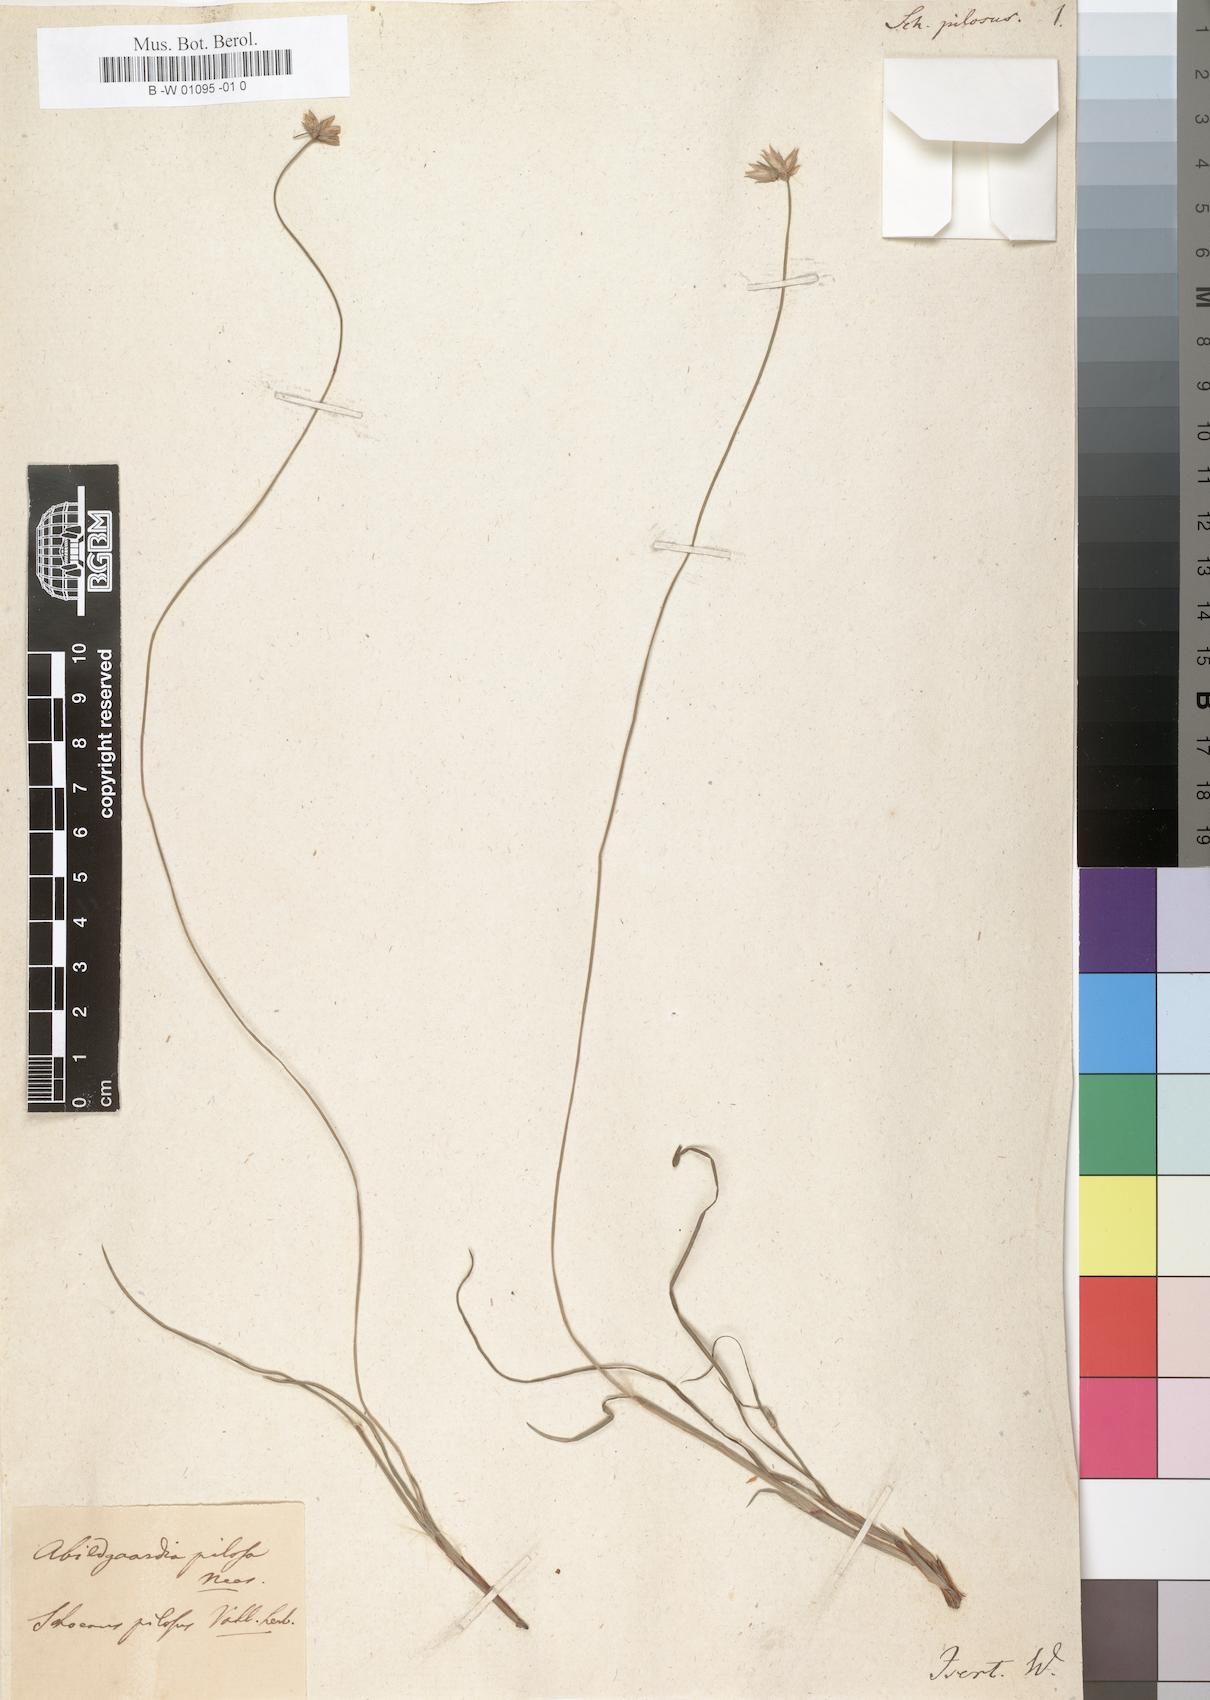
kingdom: Plantae
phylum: Tracheophyta
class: Liliopsida
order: Poales
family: Cyperaceae
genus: Bulbostylis
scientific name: Bulbostylis pilosa
